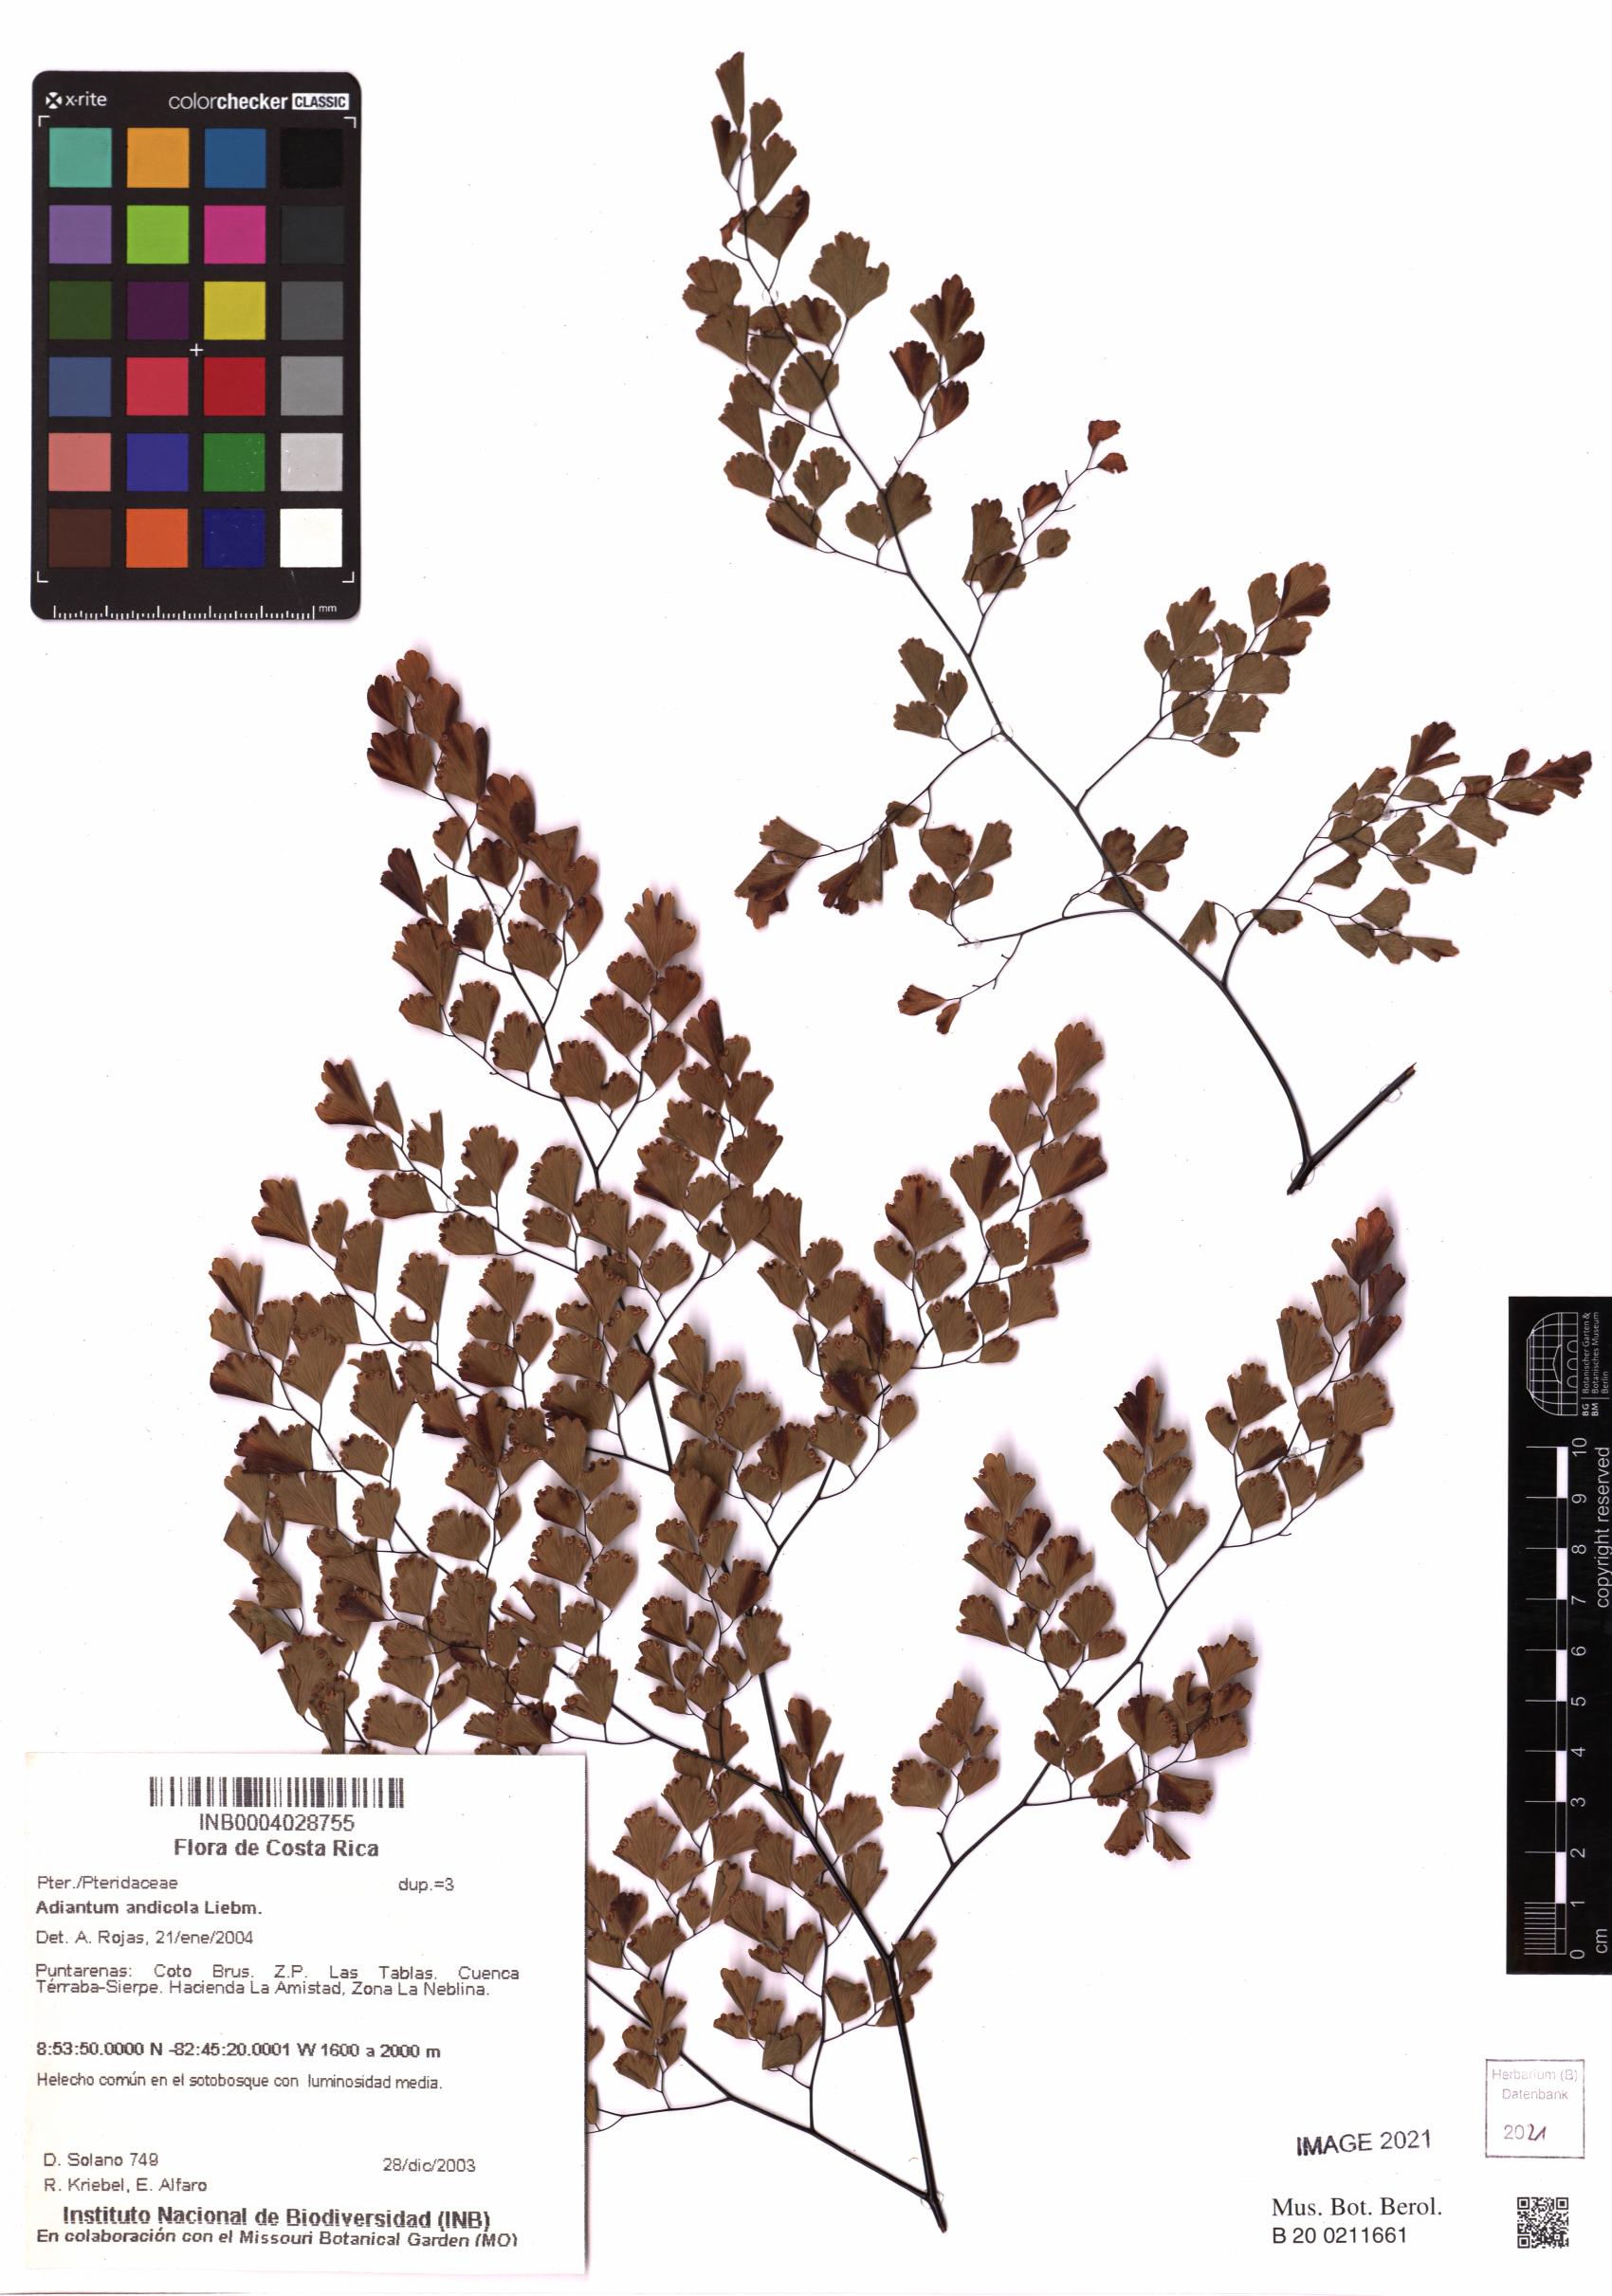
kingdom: Plantae
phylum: Tracheophyta
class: Polypodiopsida
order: Polypodiales
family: Pteridaceae
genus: Adiantum
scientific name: Adiantum andicola
